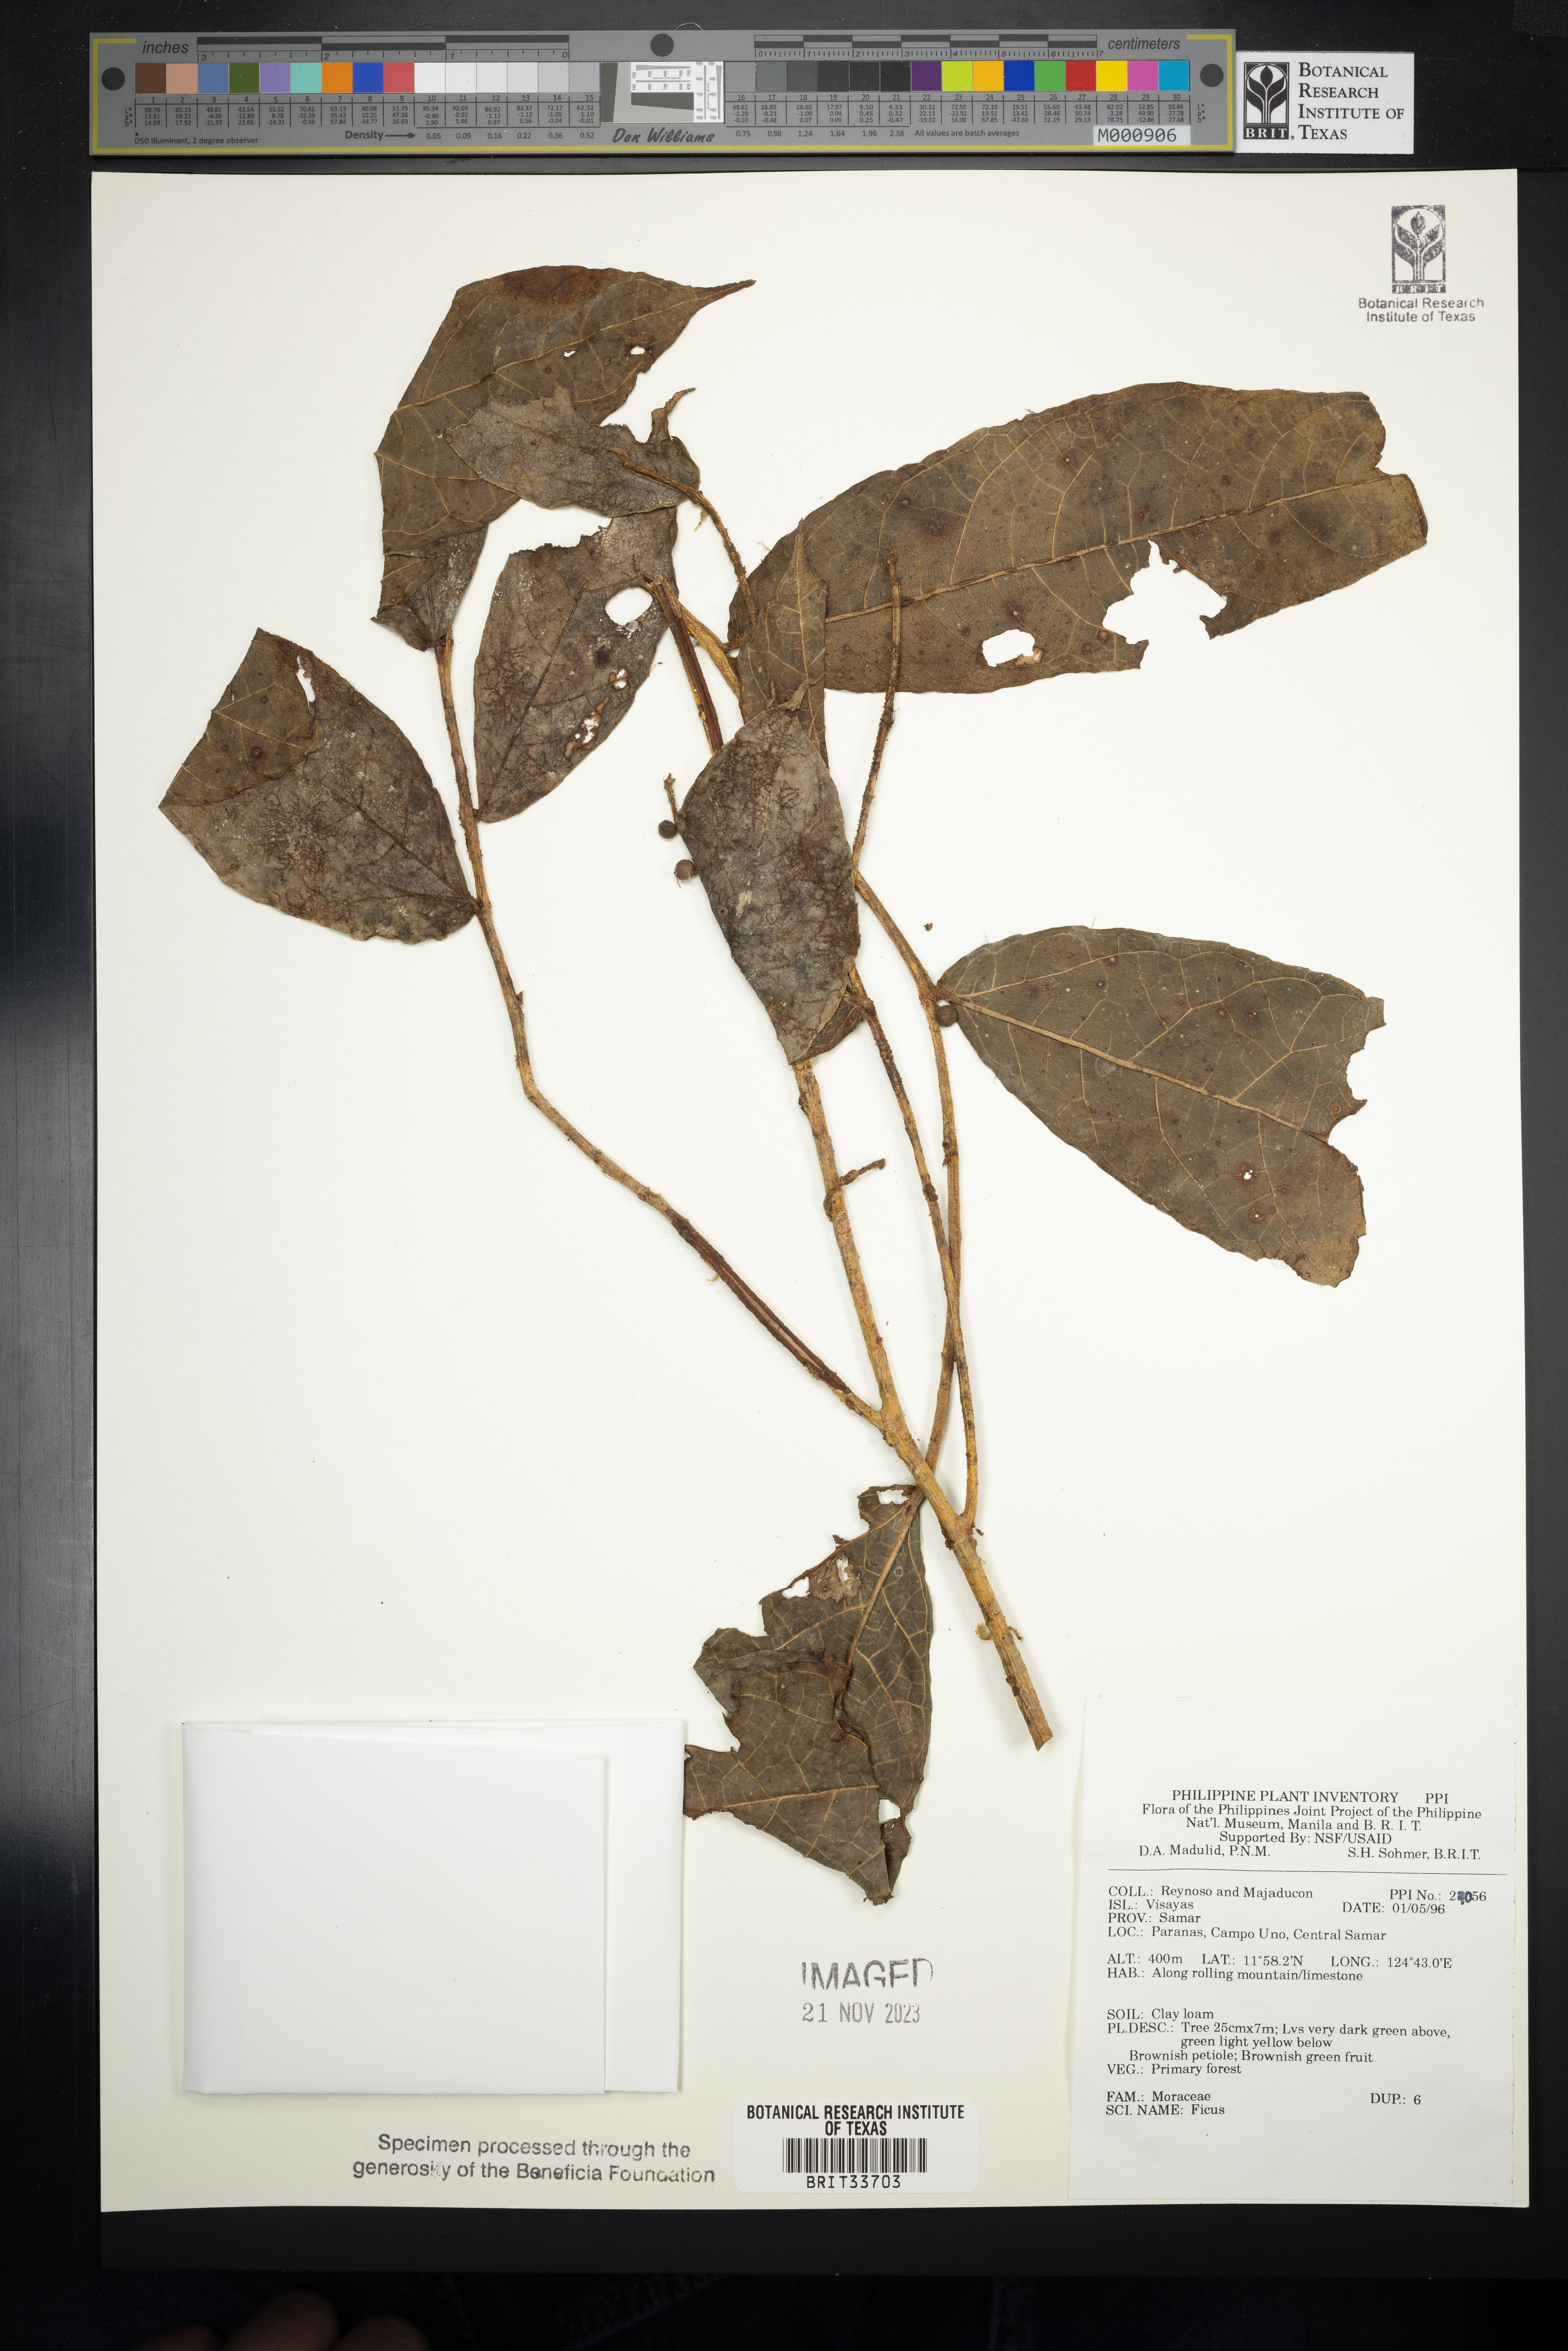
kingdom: Plantae
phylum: Tracheophyta
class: Magnoliopsida
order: Rosales
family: Moraceae
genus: Ficus
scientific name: Ficus
